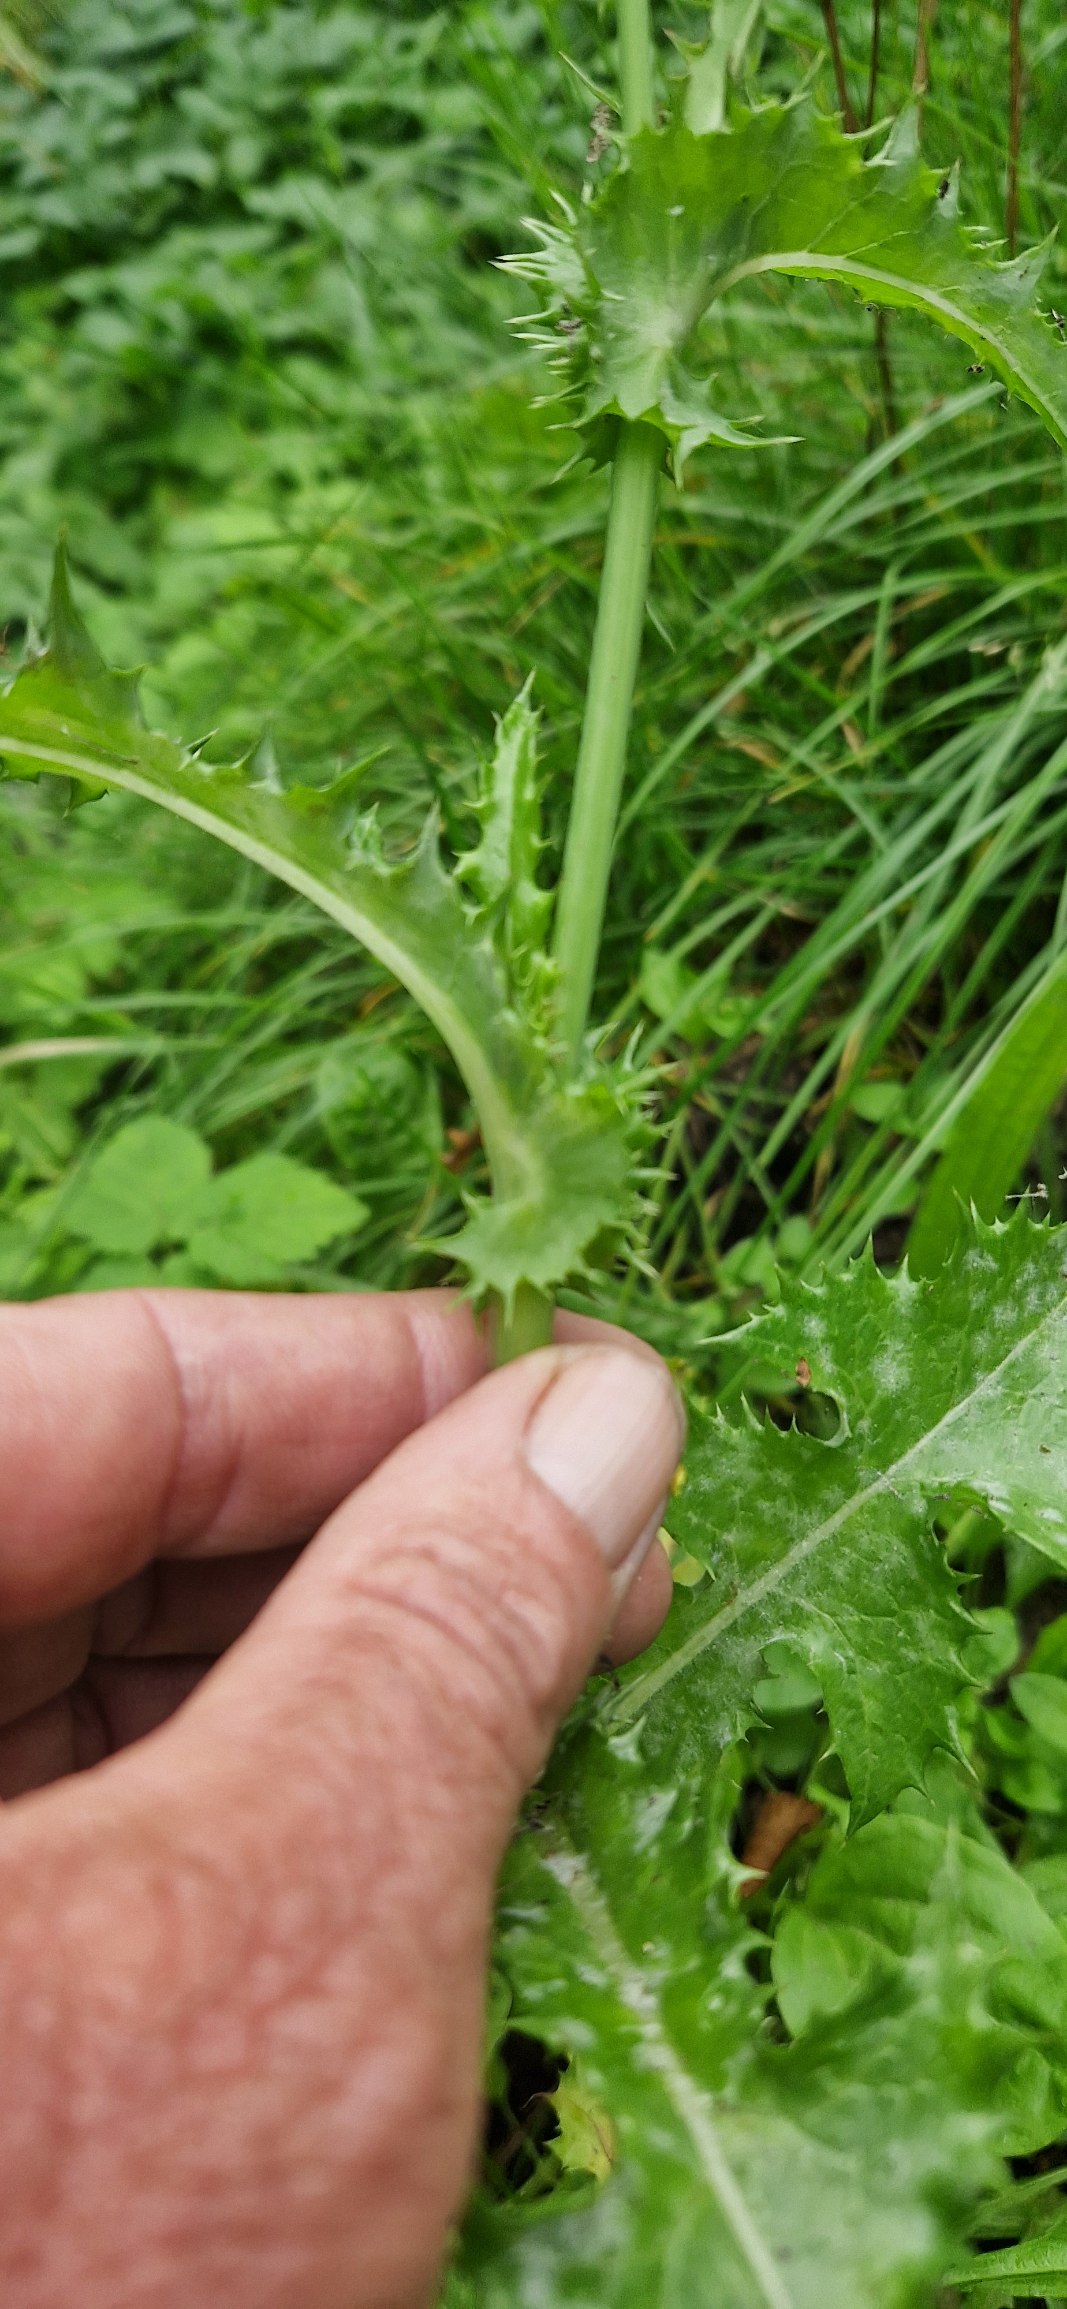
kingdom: Plantae
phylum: Tracheophyta
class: Magnoliopsida
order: Asterales
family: Asteraceae
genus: Sonchus
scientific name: Sonchus asper
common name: Ru svinemælk
